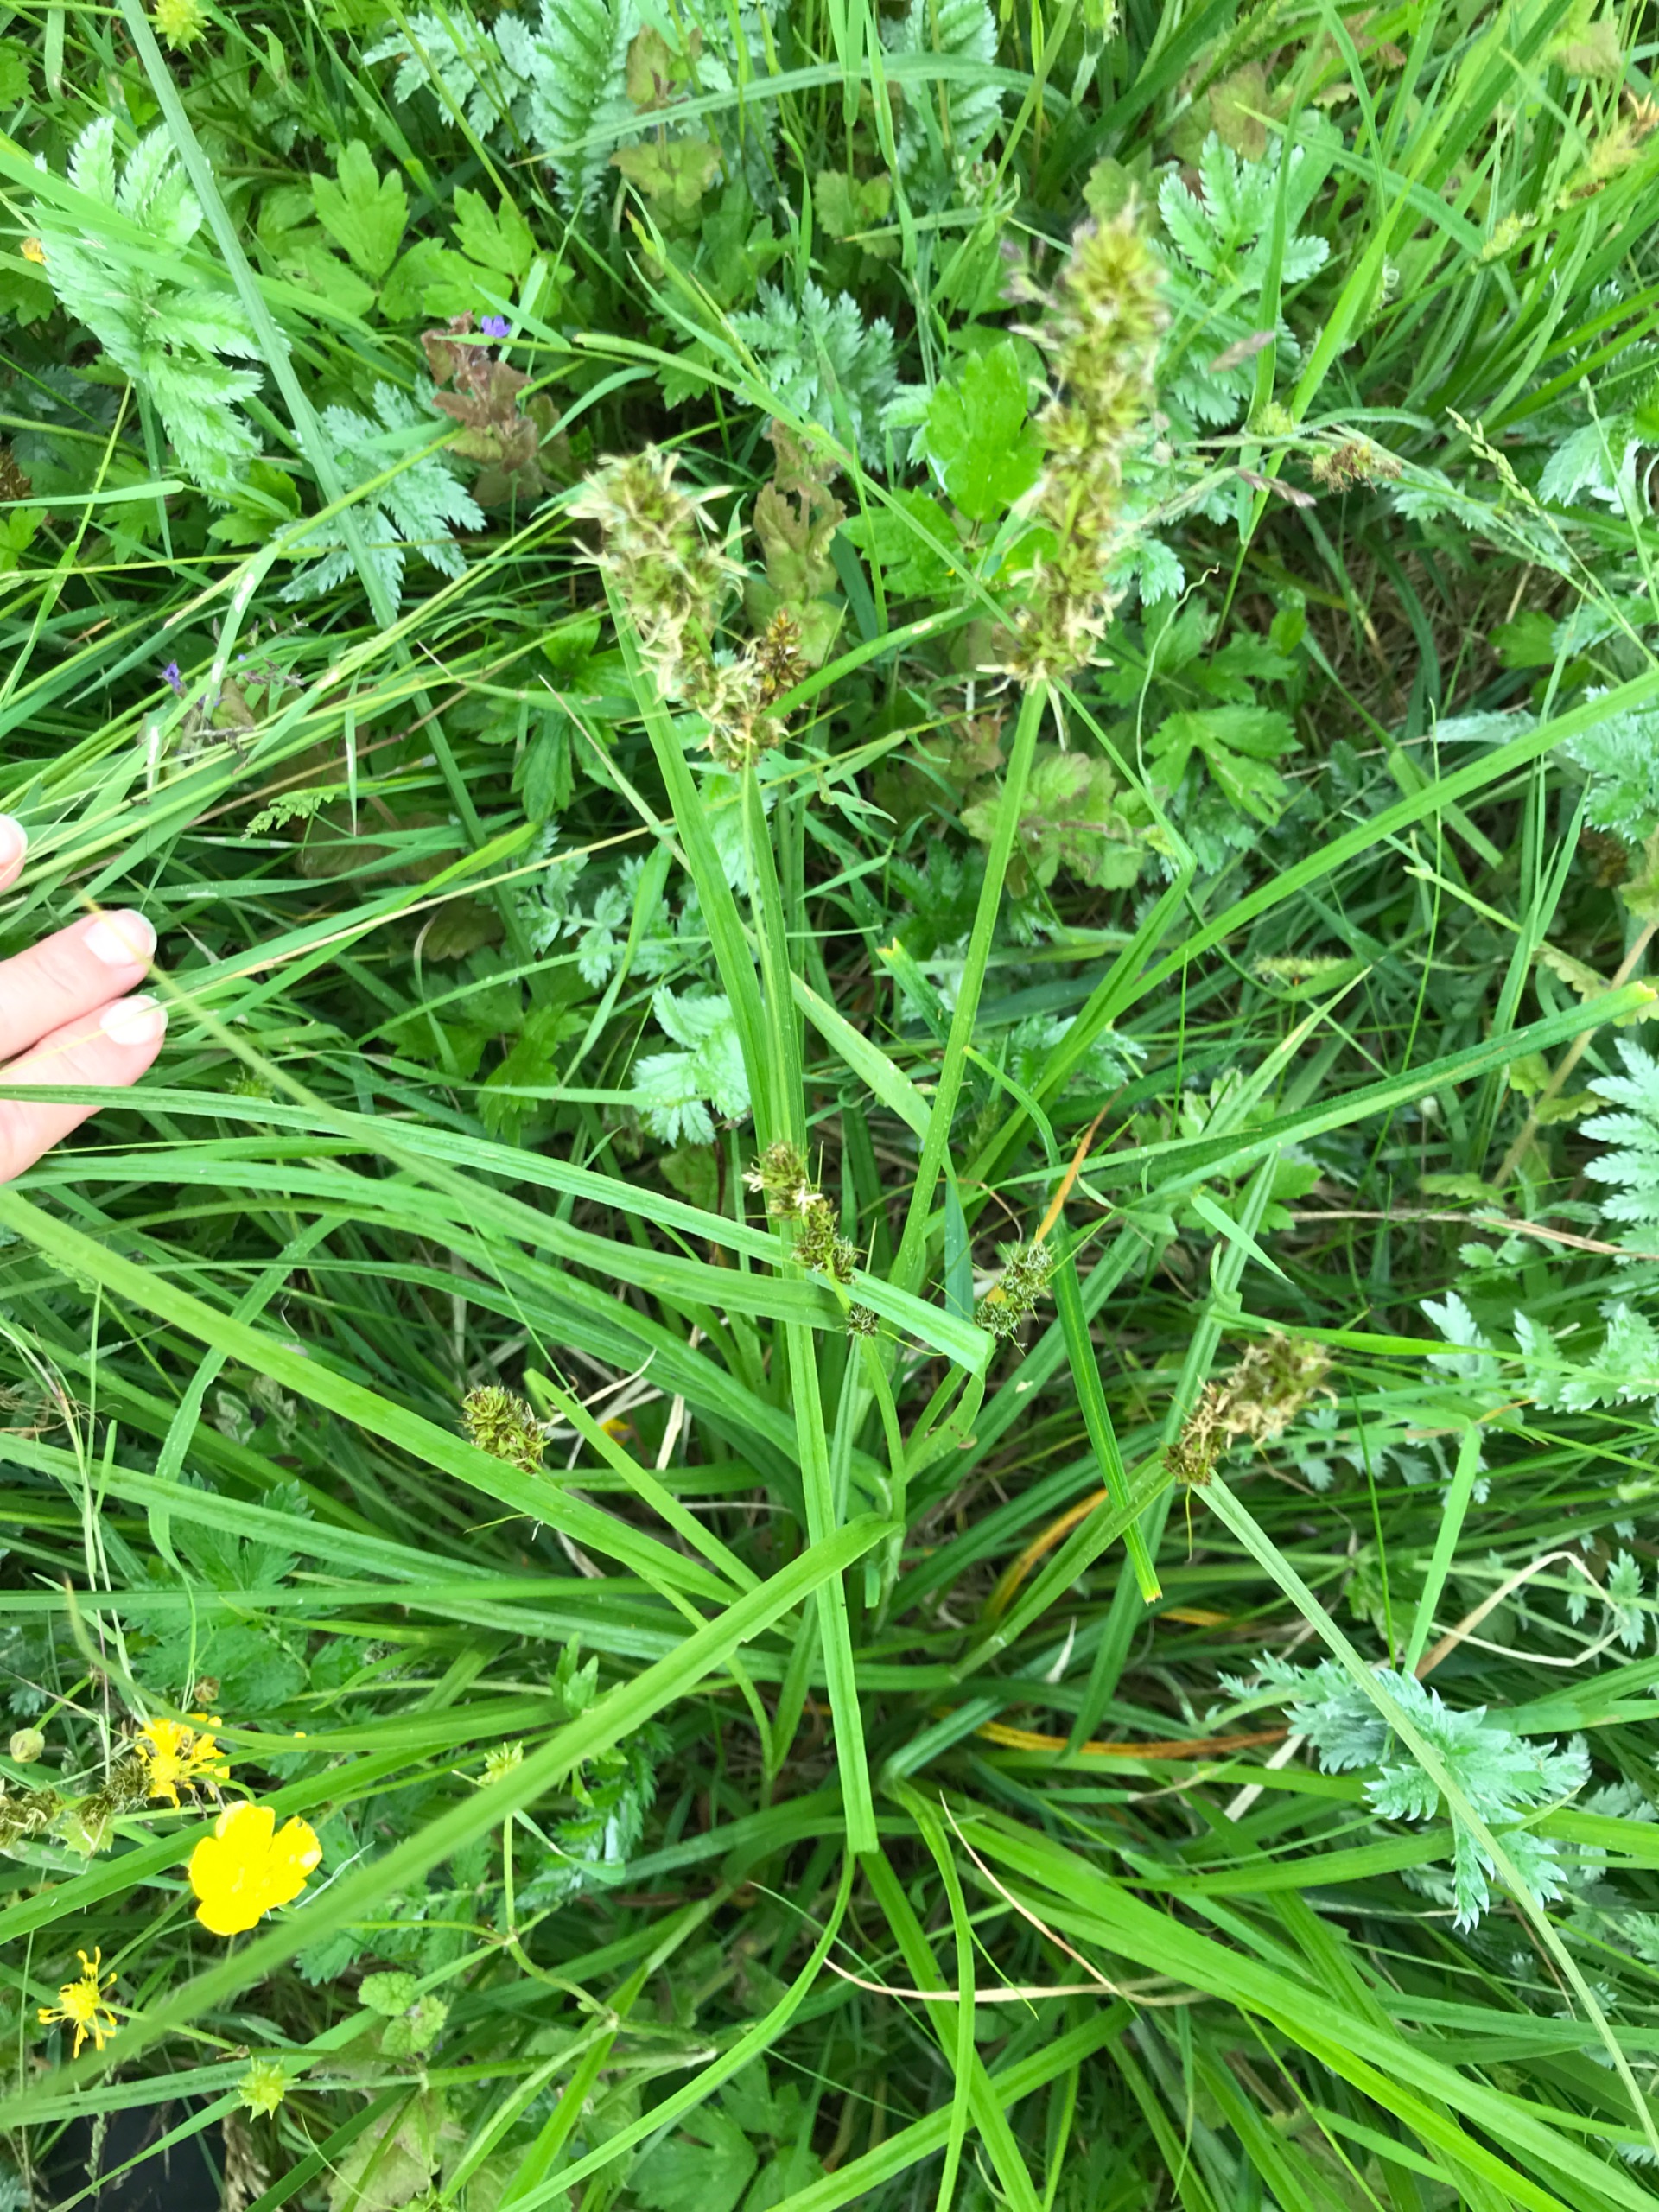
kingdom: Plantae
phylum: Tracheophyta
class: Liliopsida
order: Poales
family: Cyperaceae
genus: Carex
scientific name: Carex otrubae
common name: Sylt-star
